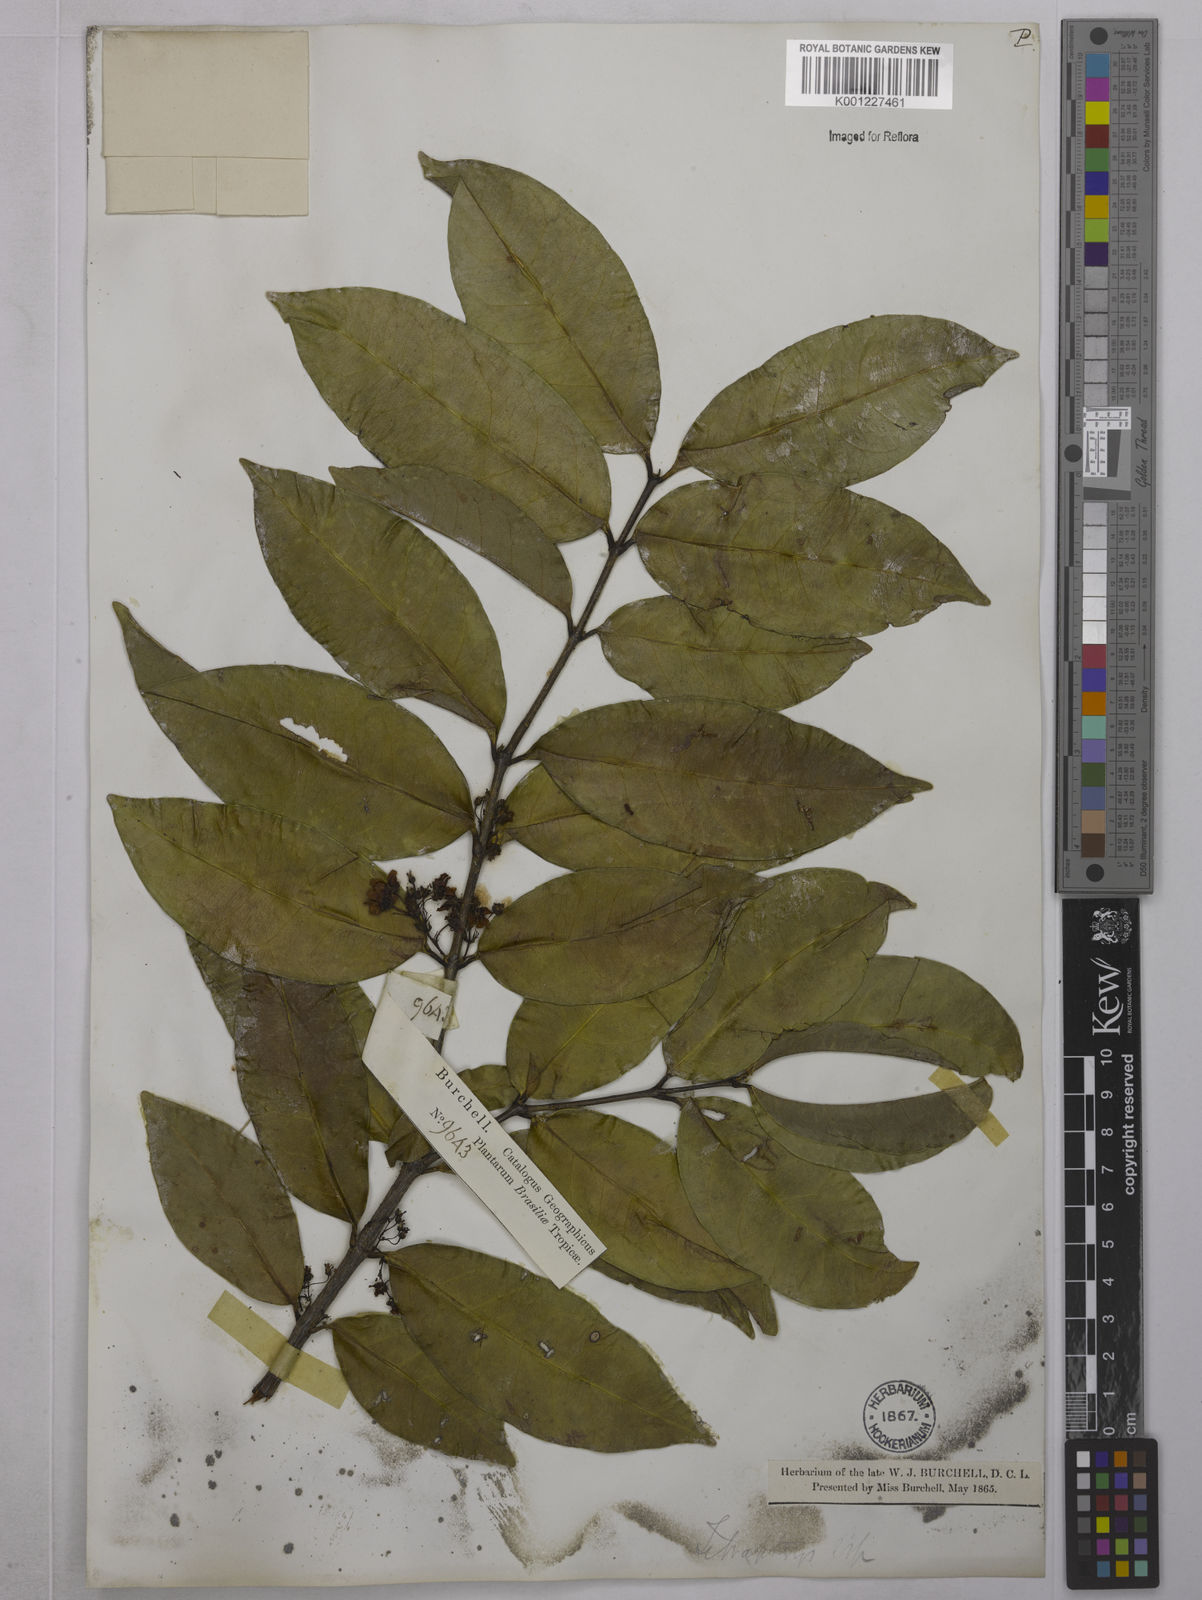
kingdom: Plantae
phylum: Tracheophyta
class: Magnoliopsida
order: Malpighiales
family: Malpighiaceae
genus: Tetrapterys
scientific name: Tetrapterys
